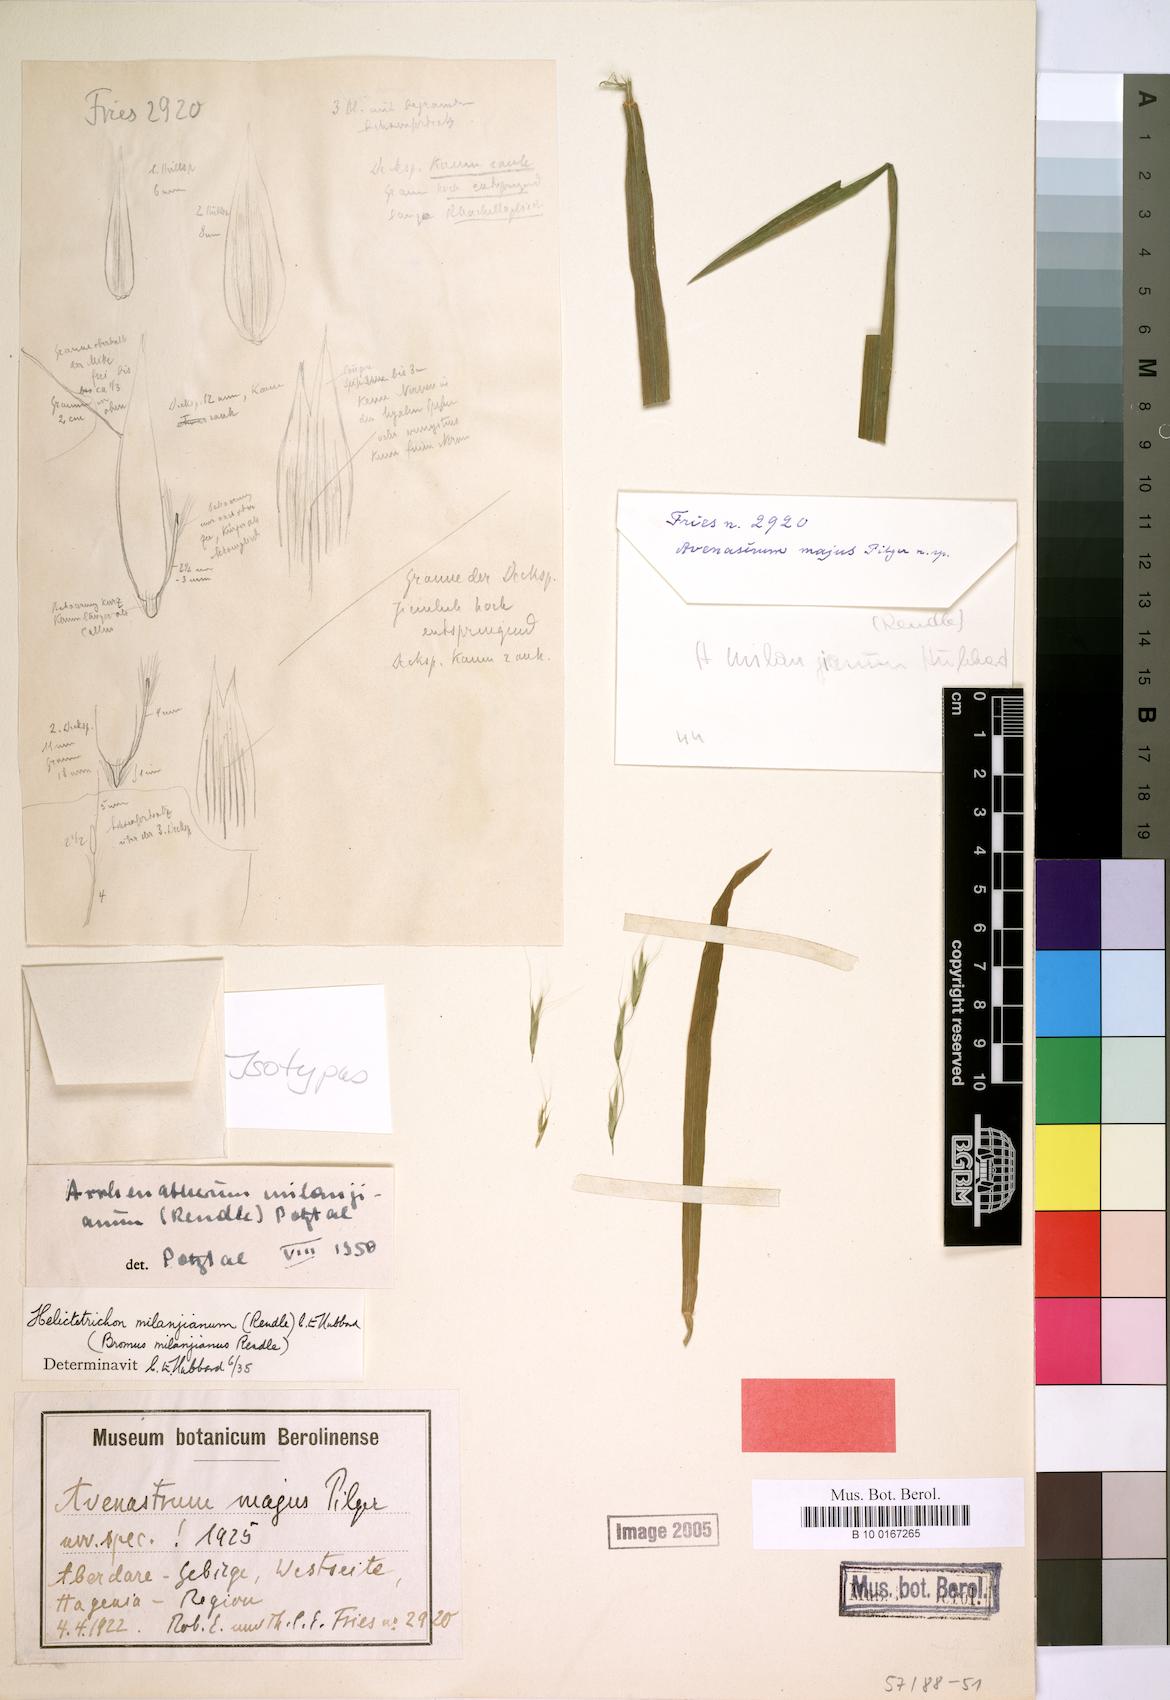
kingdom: Plantae
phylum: Tracheophyta
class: Liliopsida
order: Poales
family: Poaceae
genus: Trisetopsis
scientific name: Trisetopsis milanjiana
